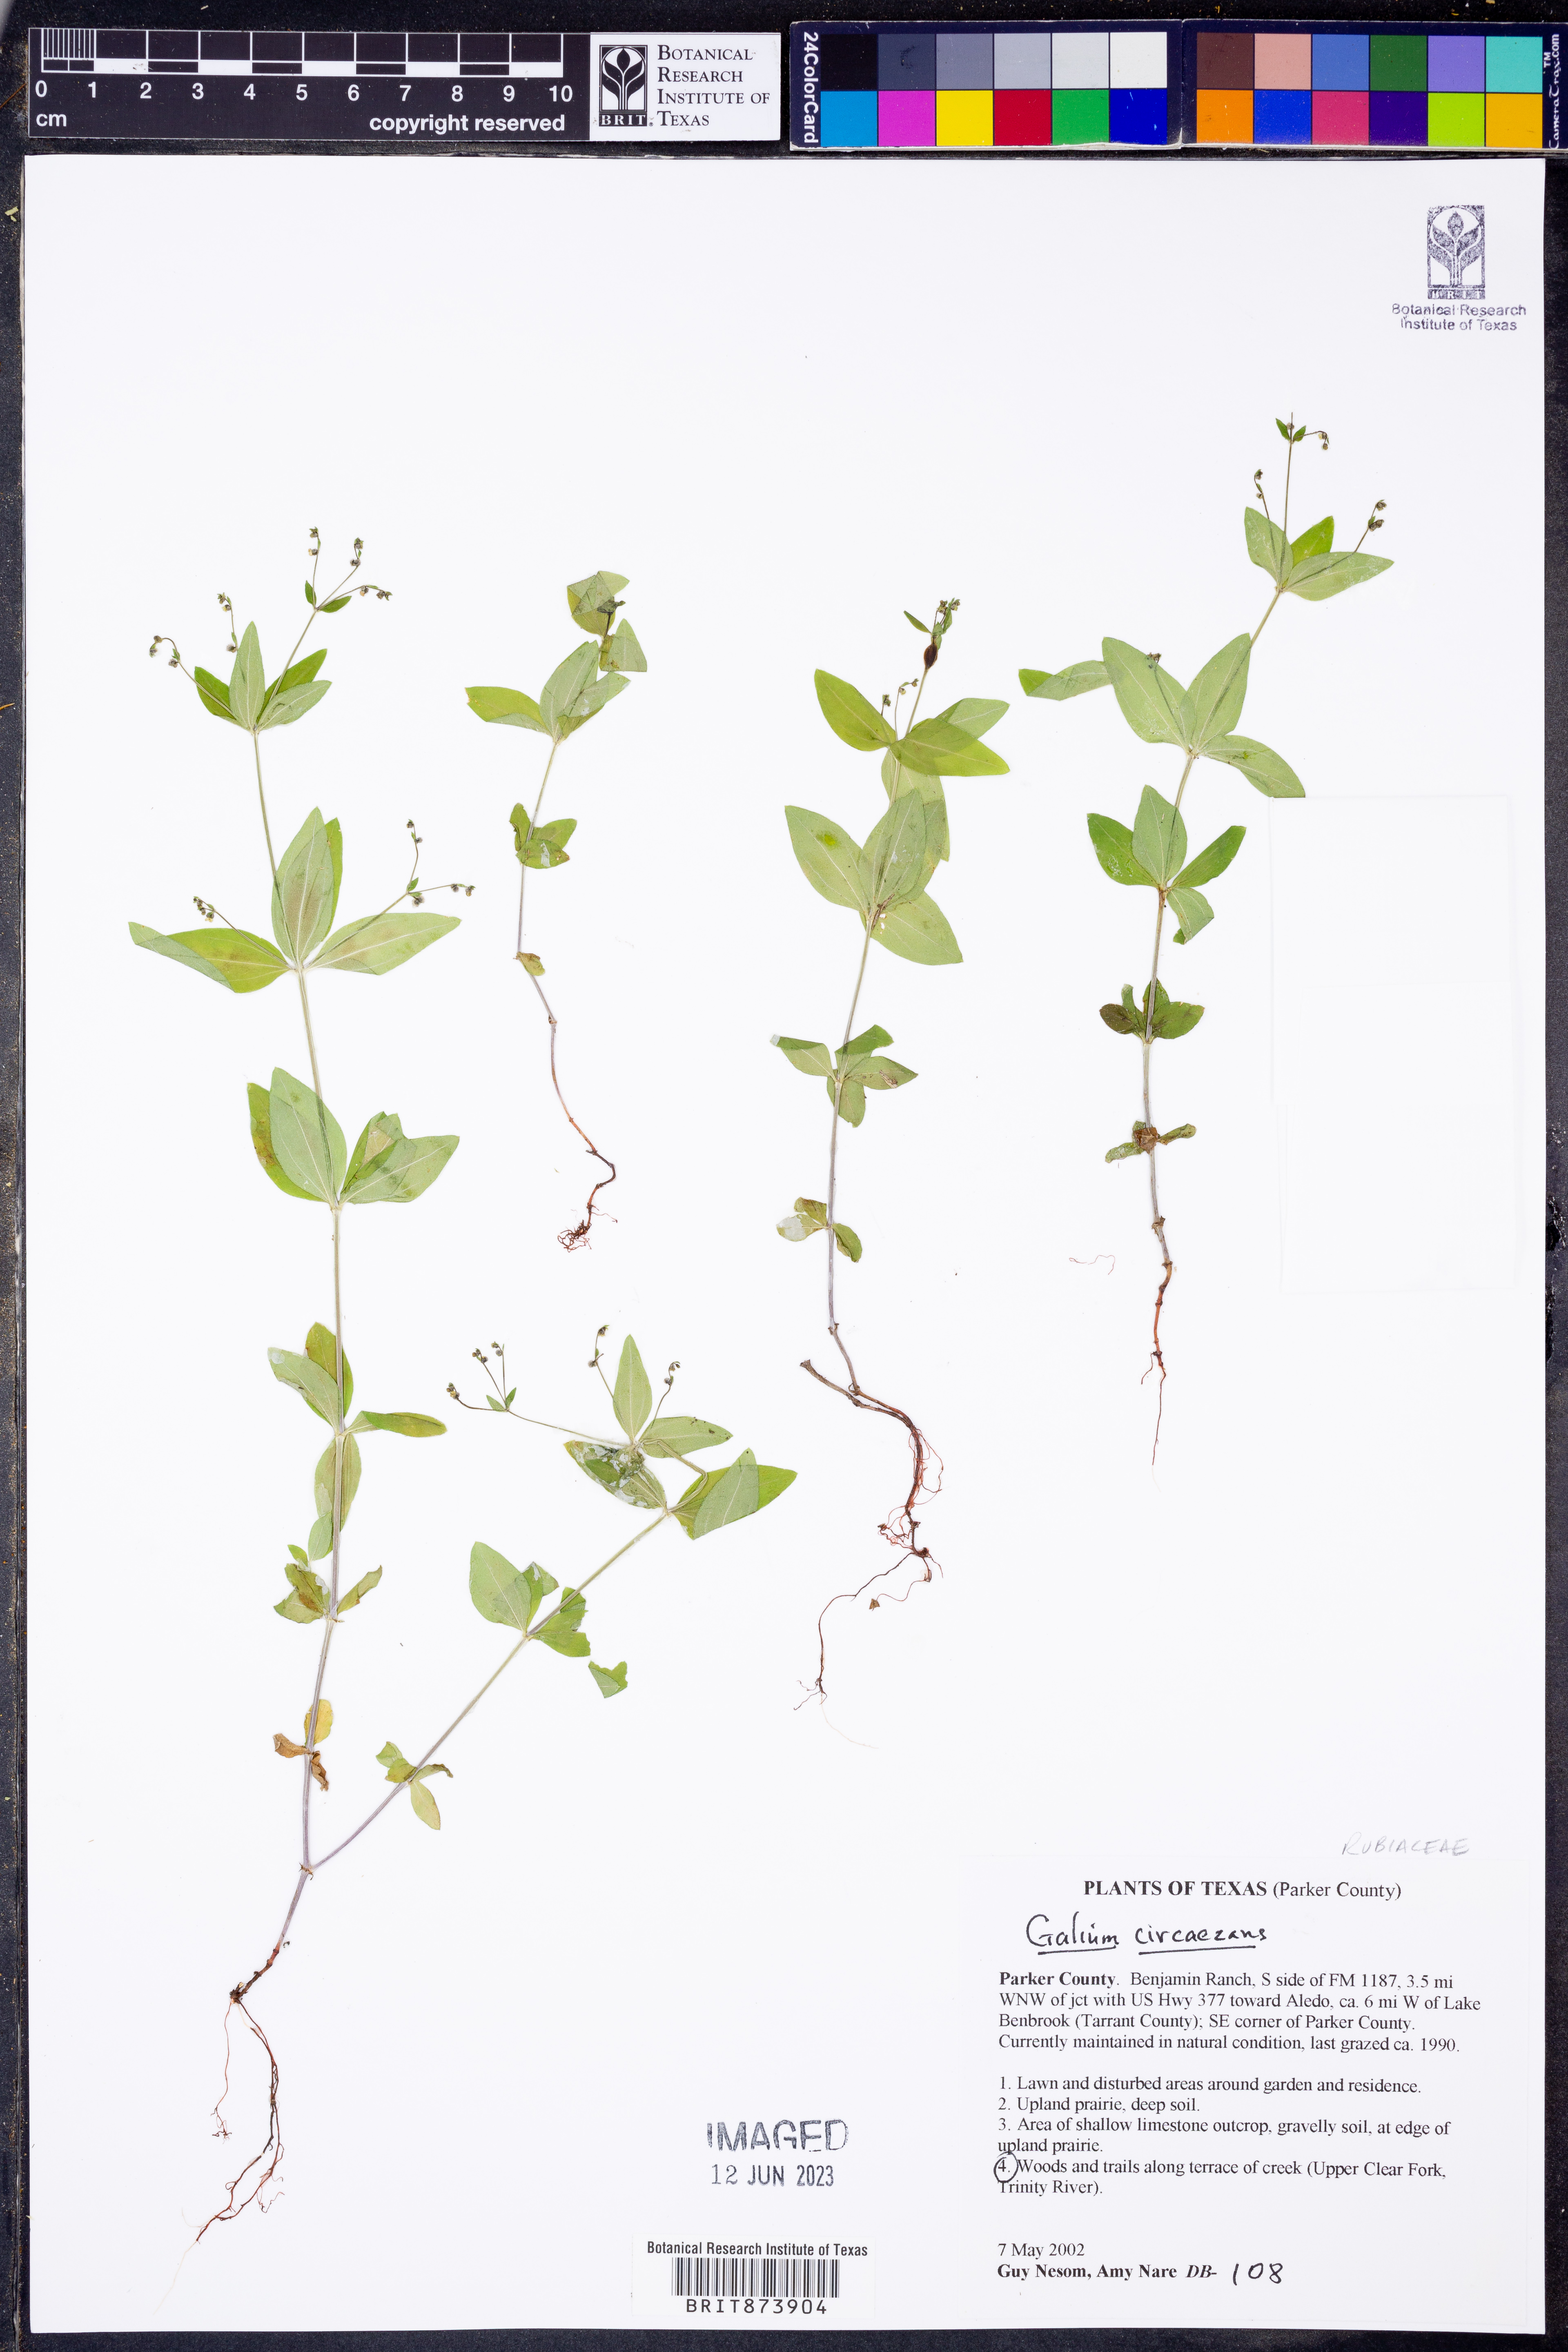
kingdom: Plantae
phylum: Tracheophyta
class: Magnoliopsida
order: Gentianales
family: Rubiaceae
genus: Galium
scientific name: Galium circaezans
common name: Forest bedstraw
